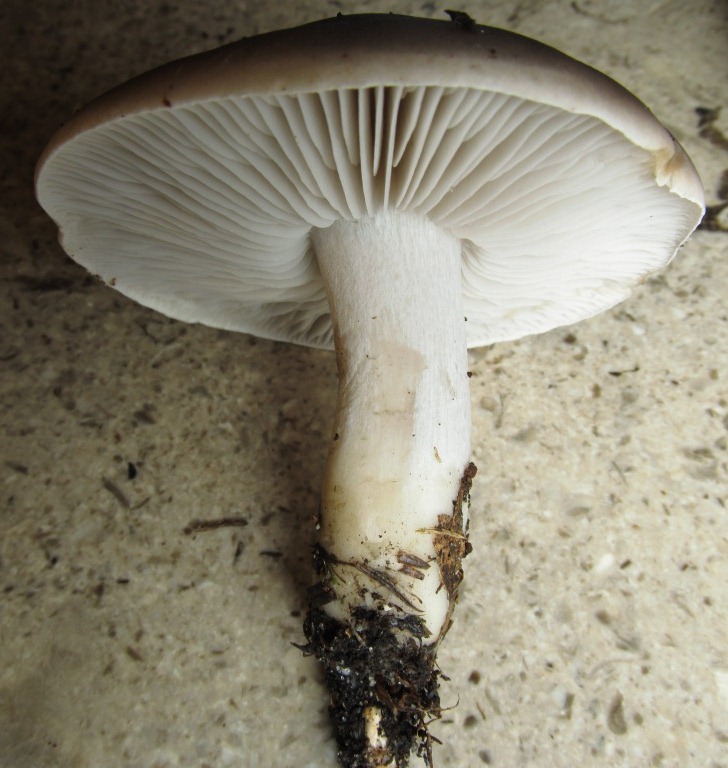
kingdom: Fungi
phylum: Basidiomycota
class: Agaricomycetes
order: Agaricales
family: Tricholomataceae
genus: Tricholoma
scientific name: Tricholoma sudum
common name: tør ridderhat
